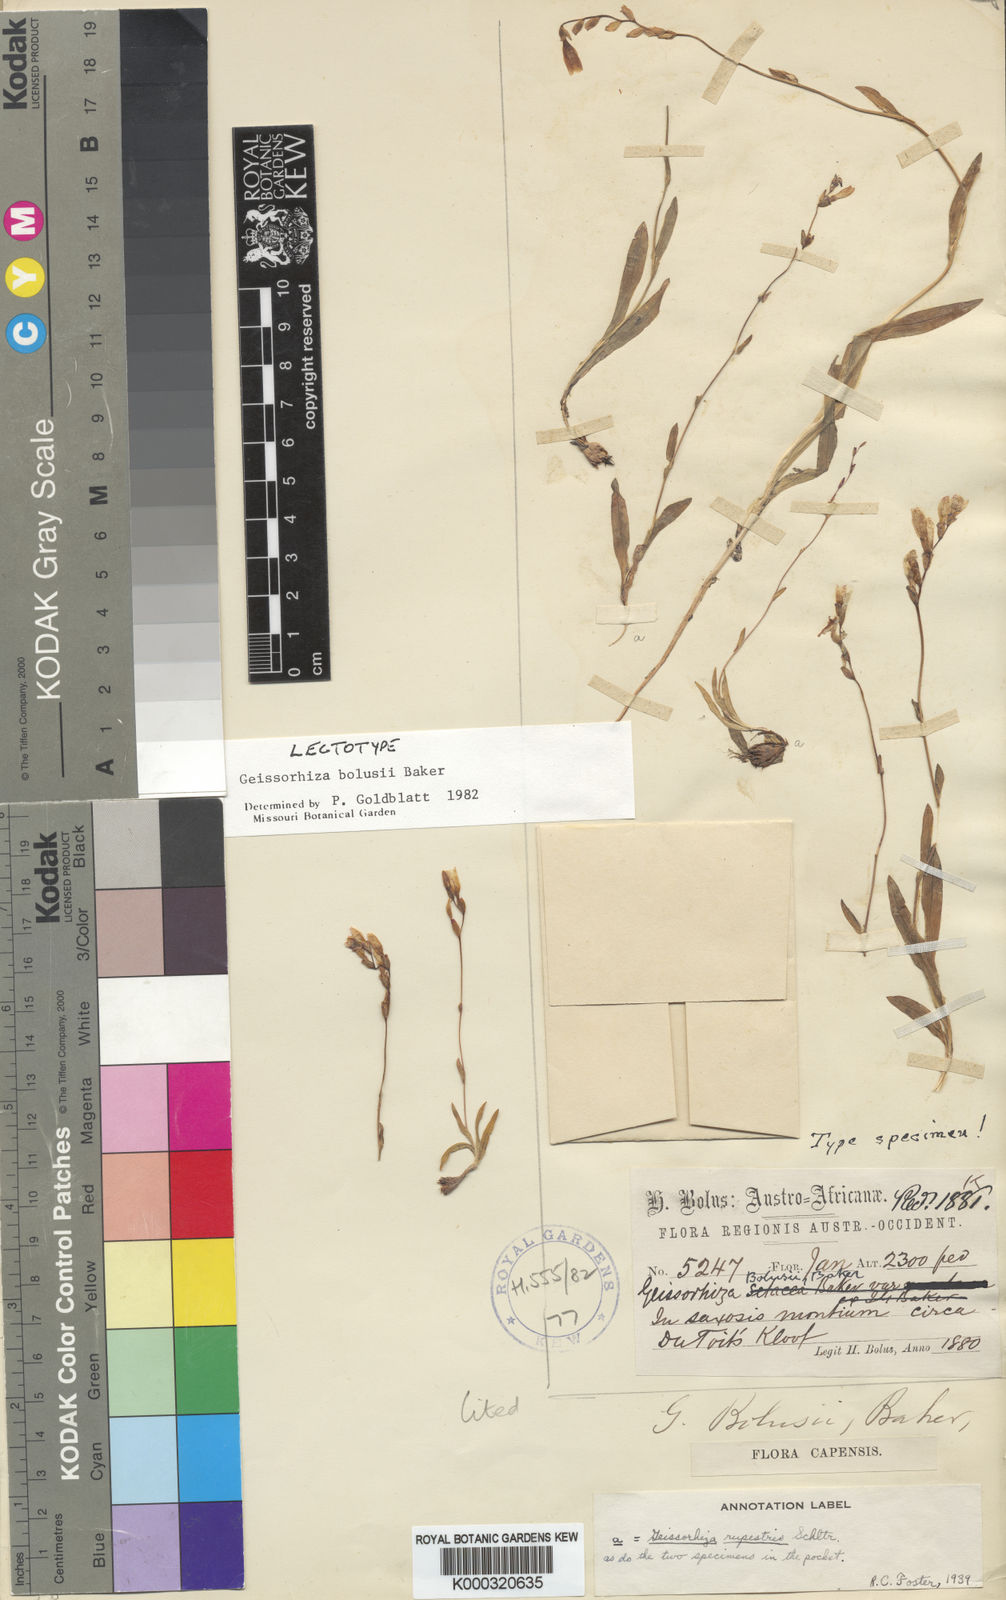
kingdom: Plantae
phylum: Tracheophyta
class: Liliopsida
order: Asparagales
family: Iridaceae
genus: Geissorhiza
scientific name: Geissorhiza bolusii
